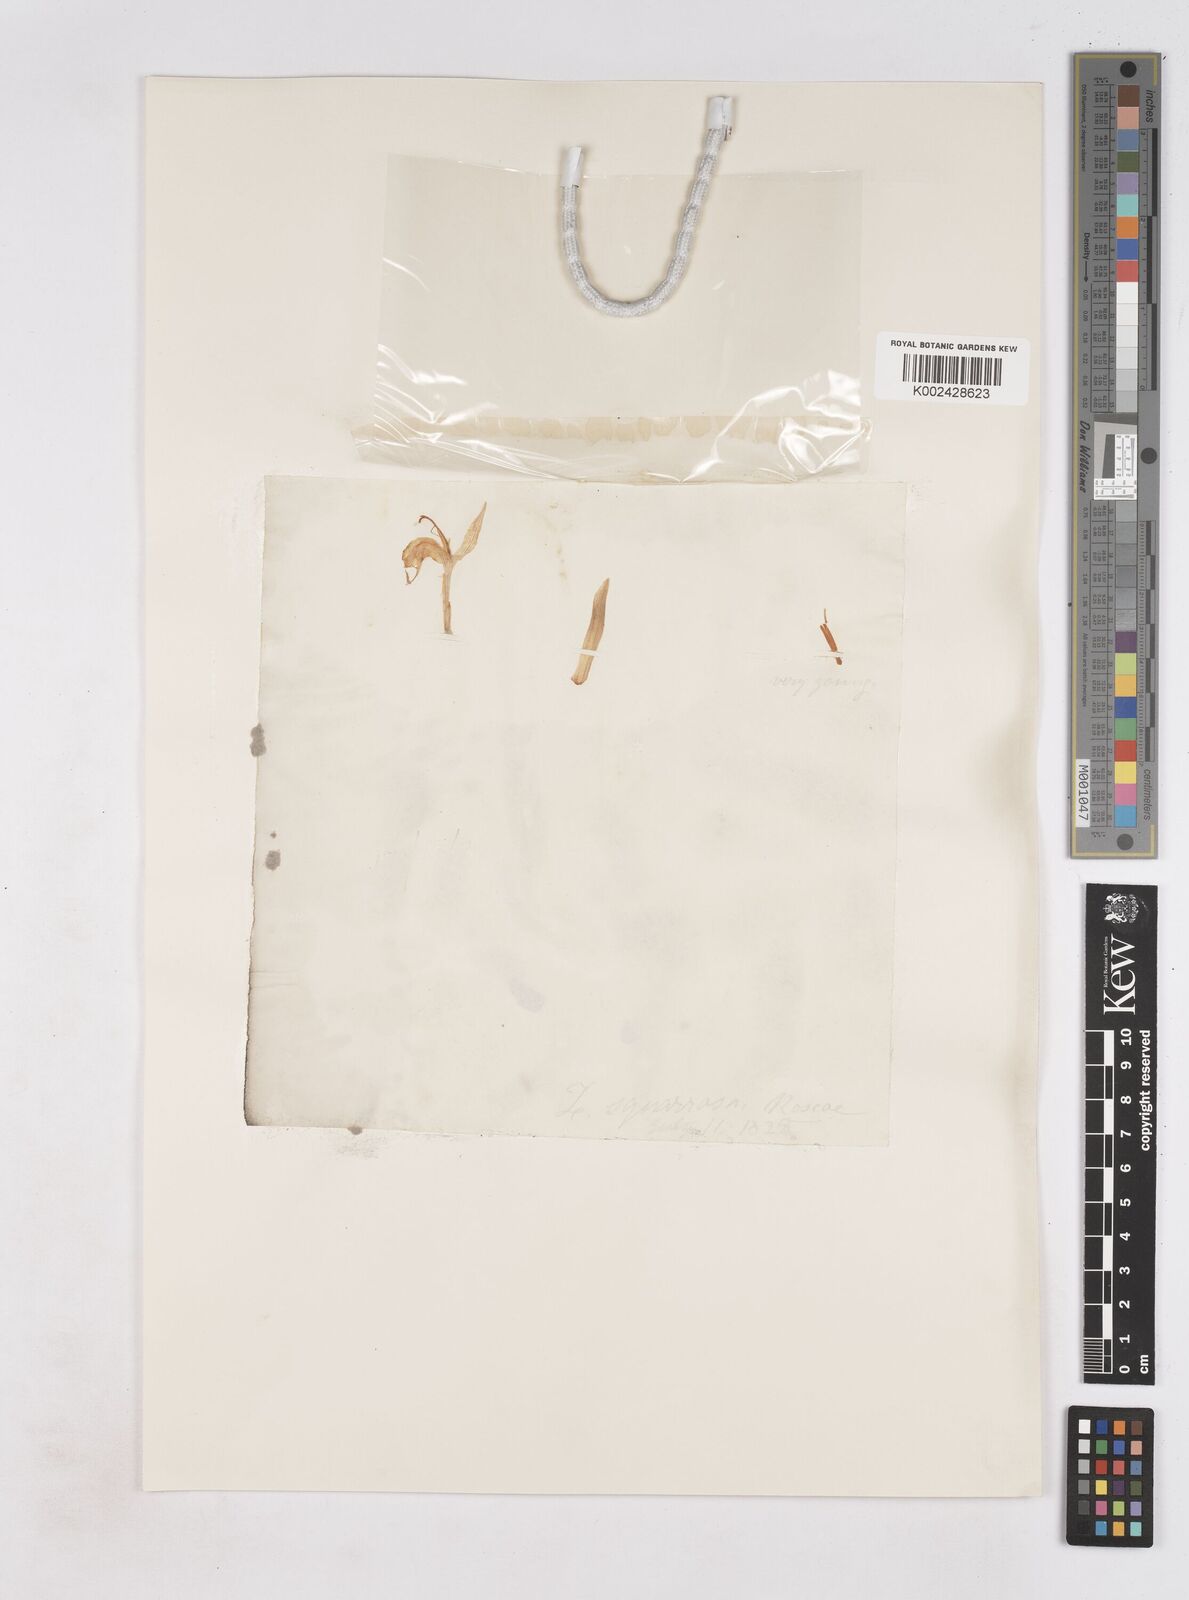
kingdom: Plantae
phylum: Tracheophyta
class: Liliopsida
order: Zingiberales
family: Zingiberaceae
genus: Zingiber
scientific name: Zingiber squarrosum
